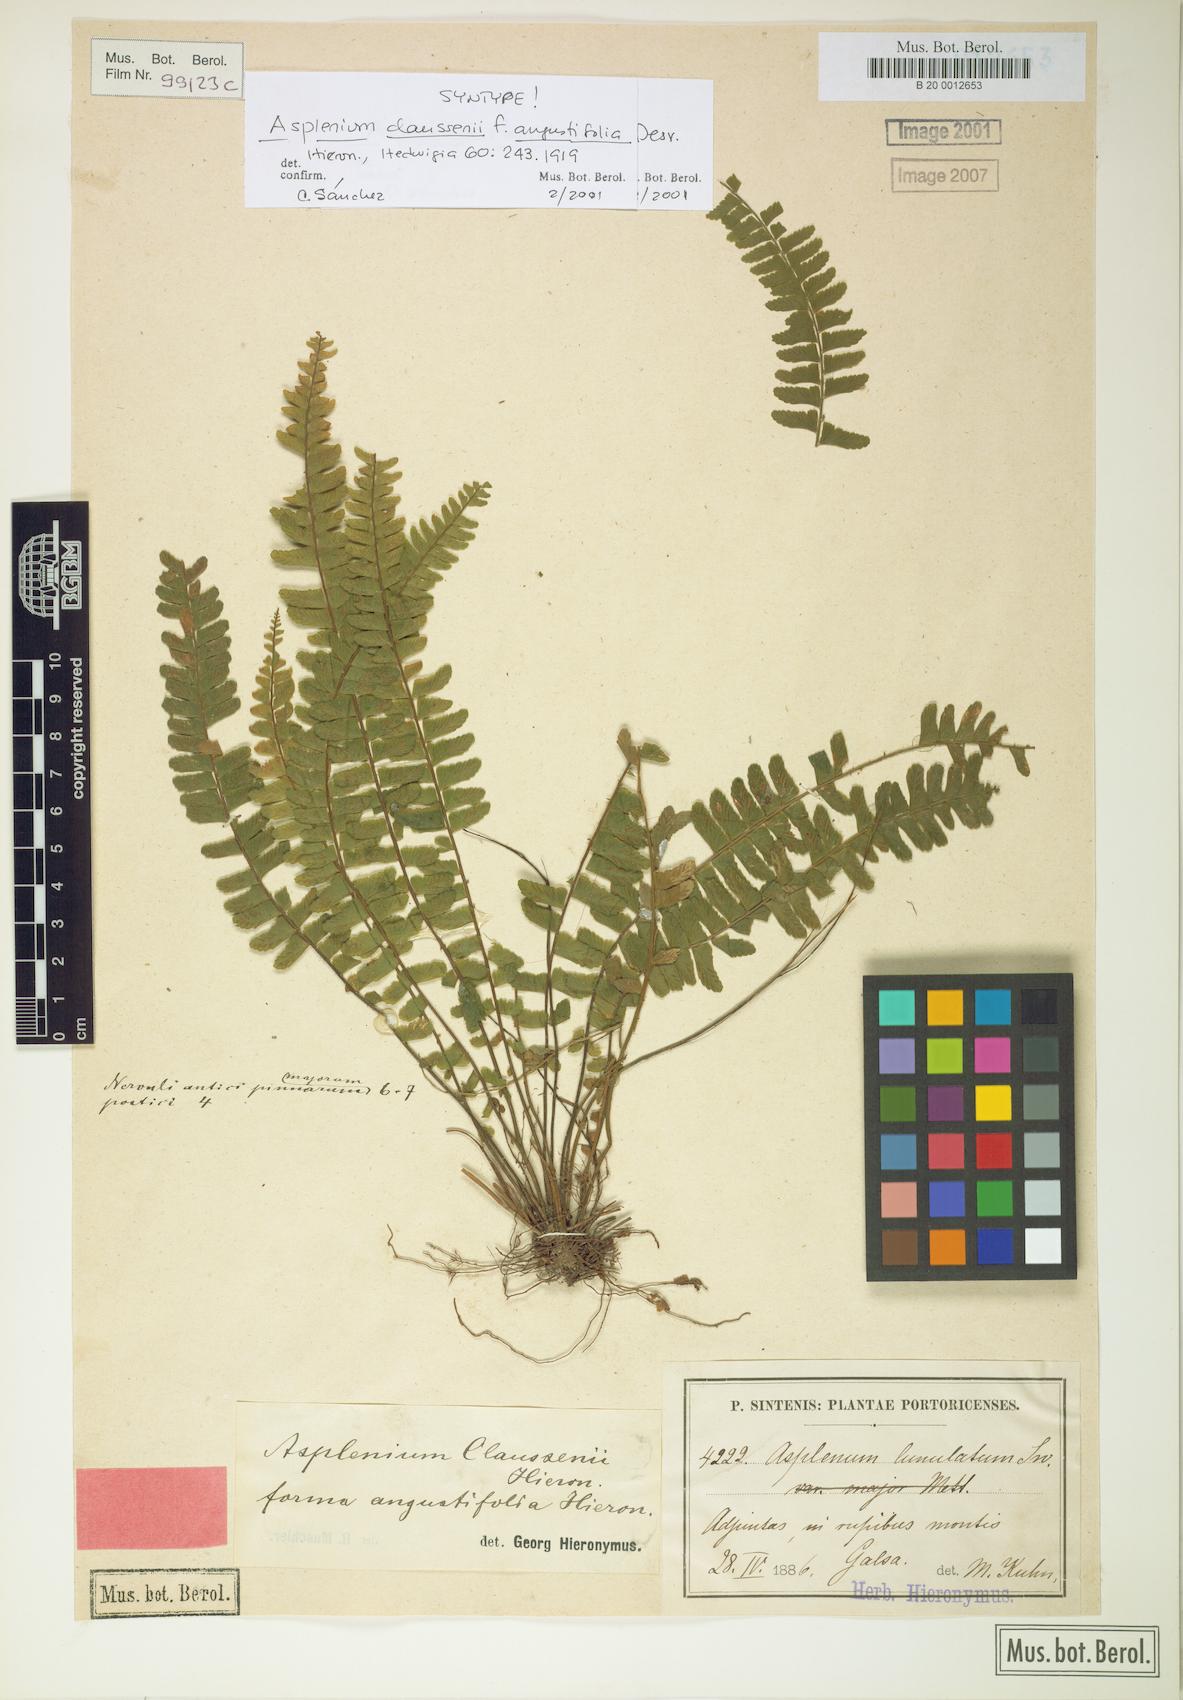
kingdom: Plantae
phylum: Tracheophyta
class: Polypodiopsida
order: Polypodiales
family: Aspleniaceae
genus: Asplenium
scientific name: Asplenium claussenii
